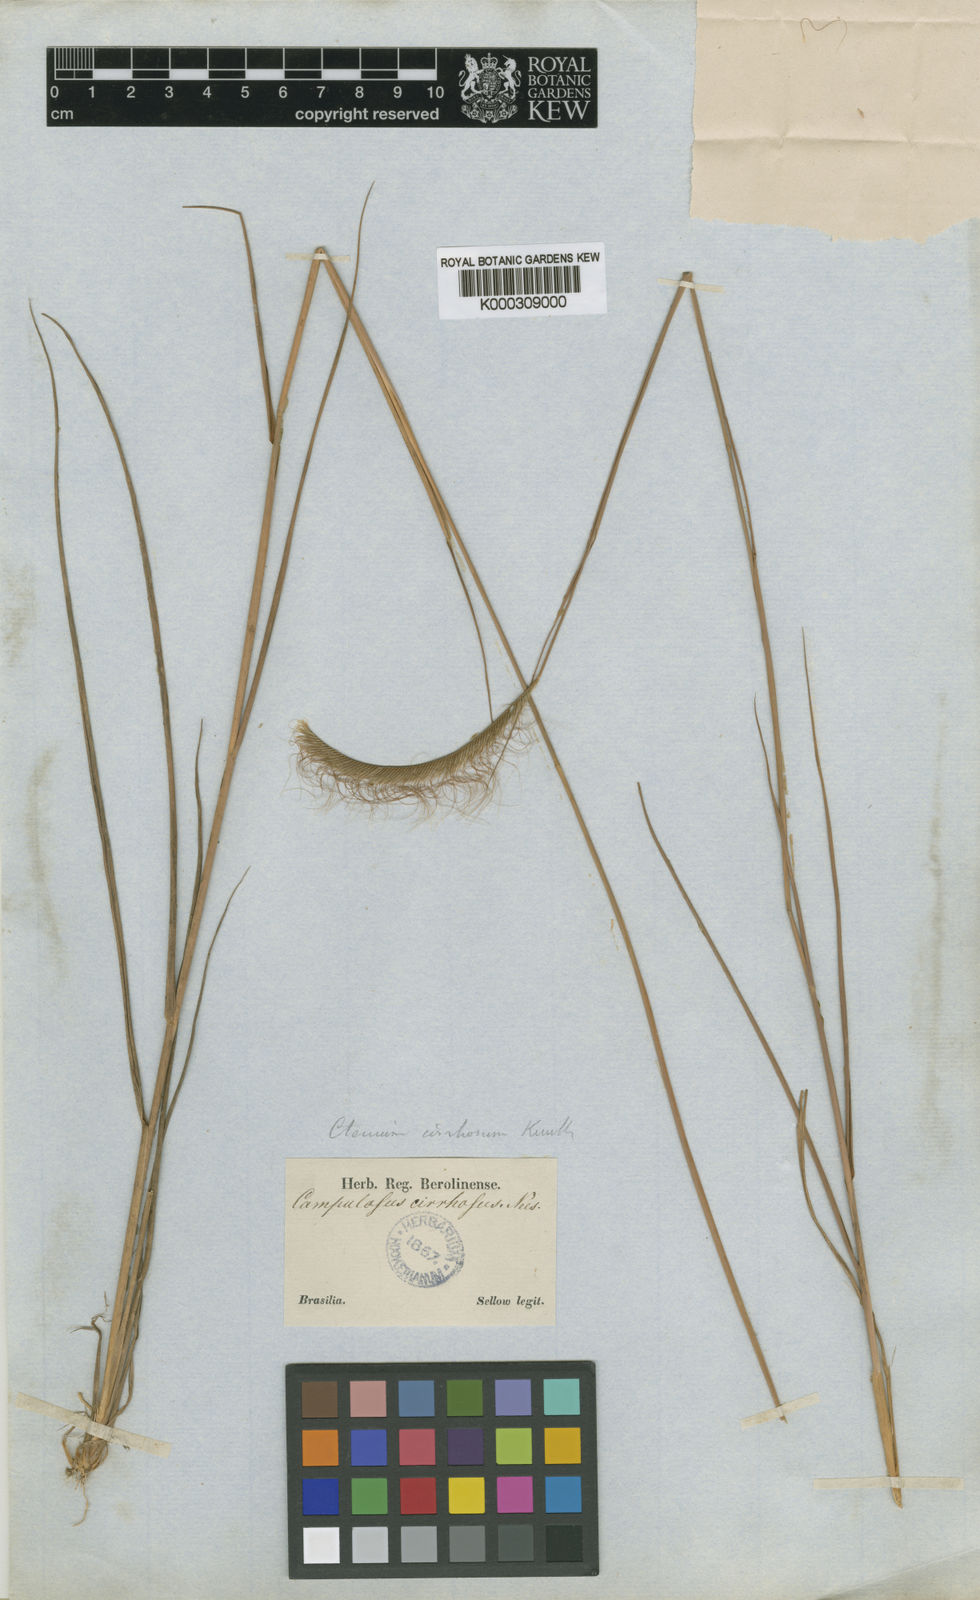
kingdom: Plantae
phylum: Tracheophyta
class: Liliopsida
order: Poales
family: Poaceae
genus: Ctenium
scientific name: Ctenium cirrhosum
